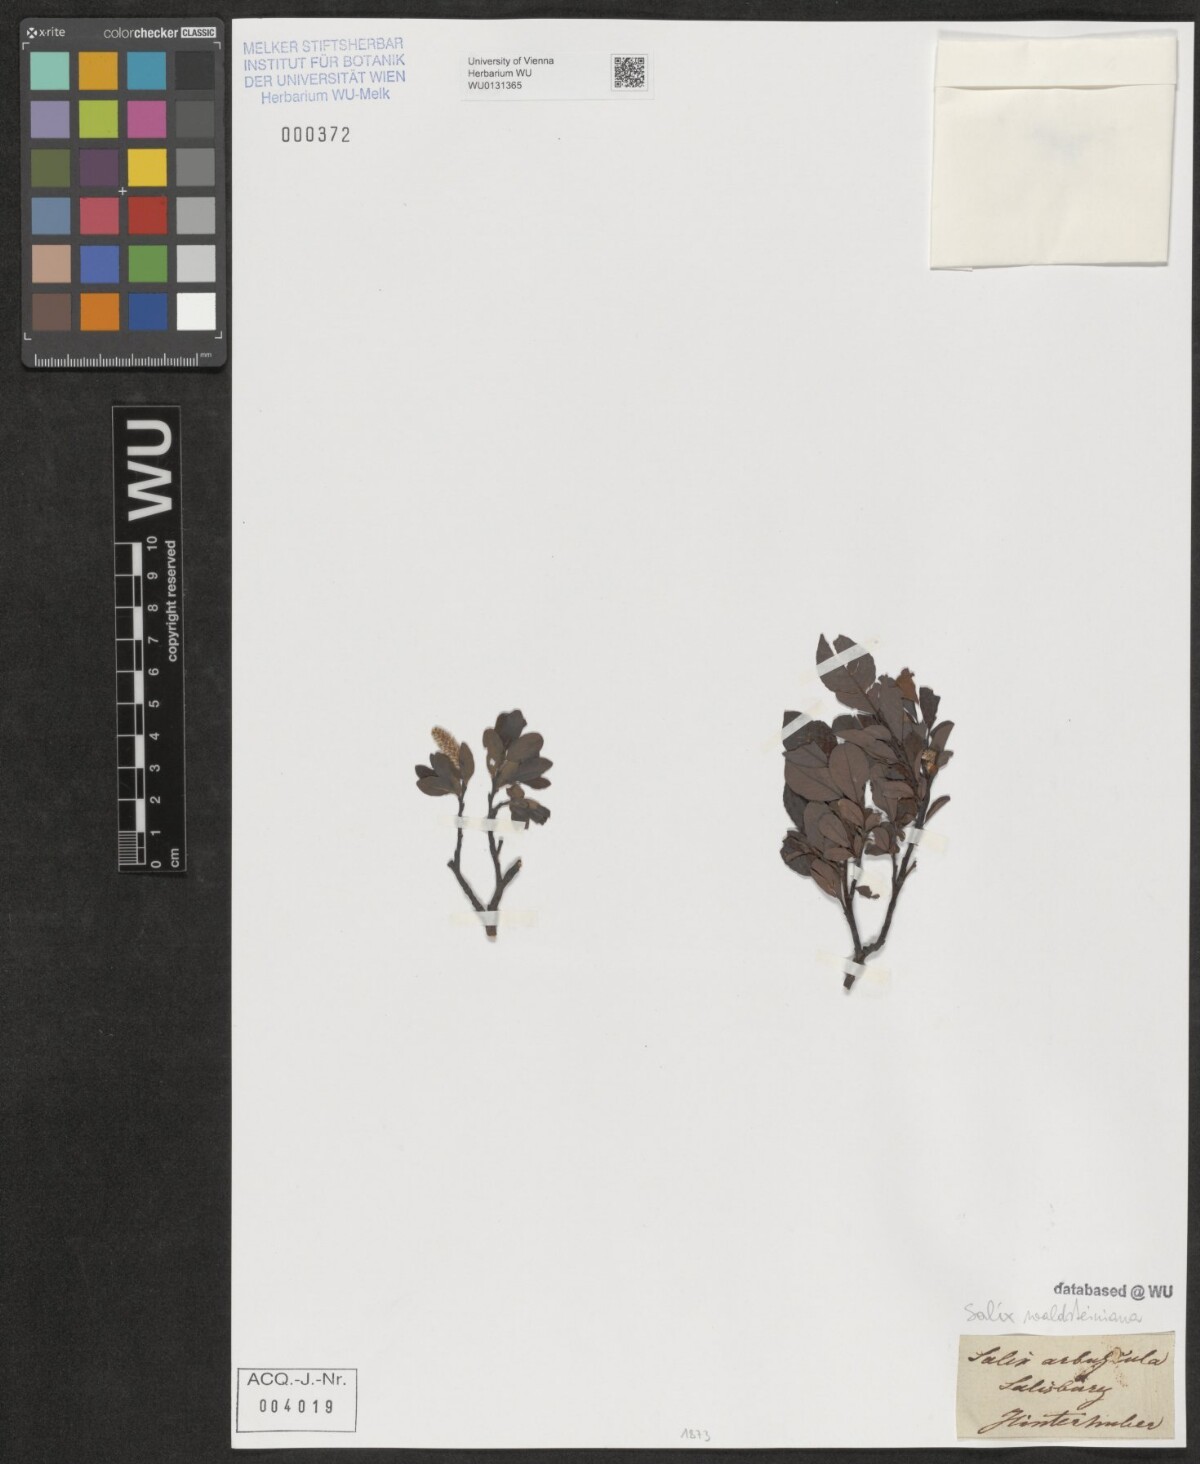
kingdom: Plantae
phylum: Tracheophyta
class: Magnoliopsida
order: Malpighiales
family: Salicaceae
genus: Salix
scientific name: Salix waldsteiniana
